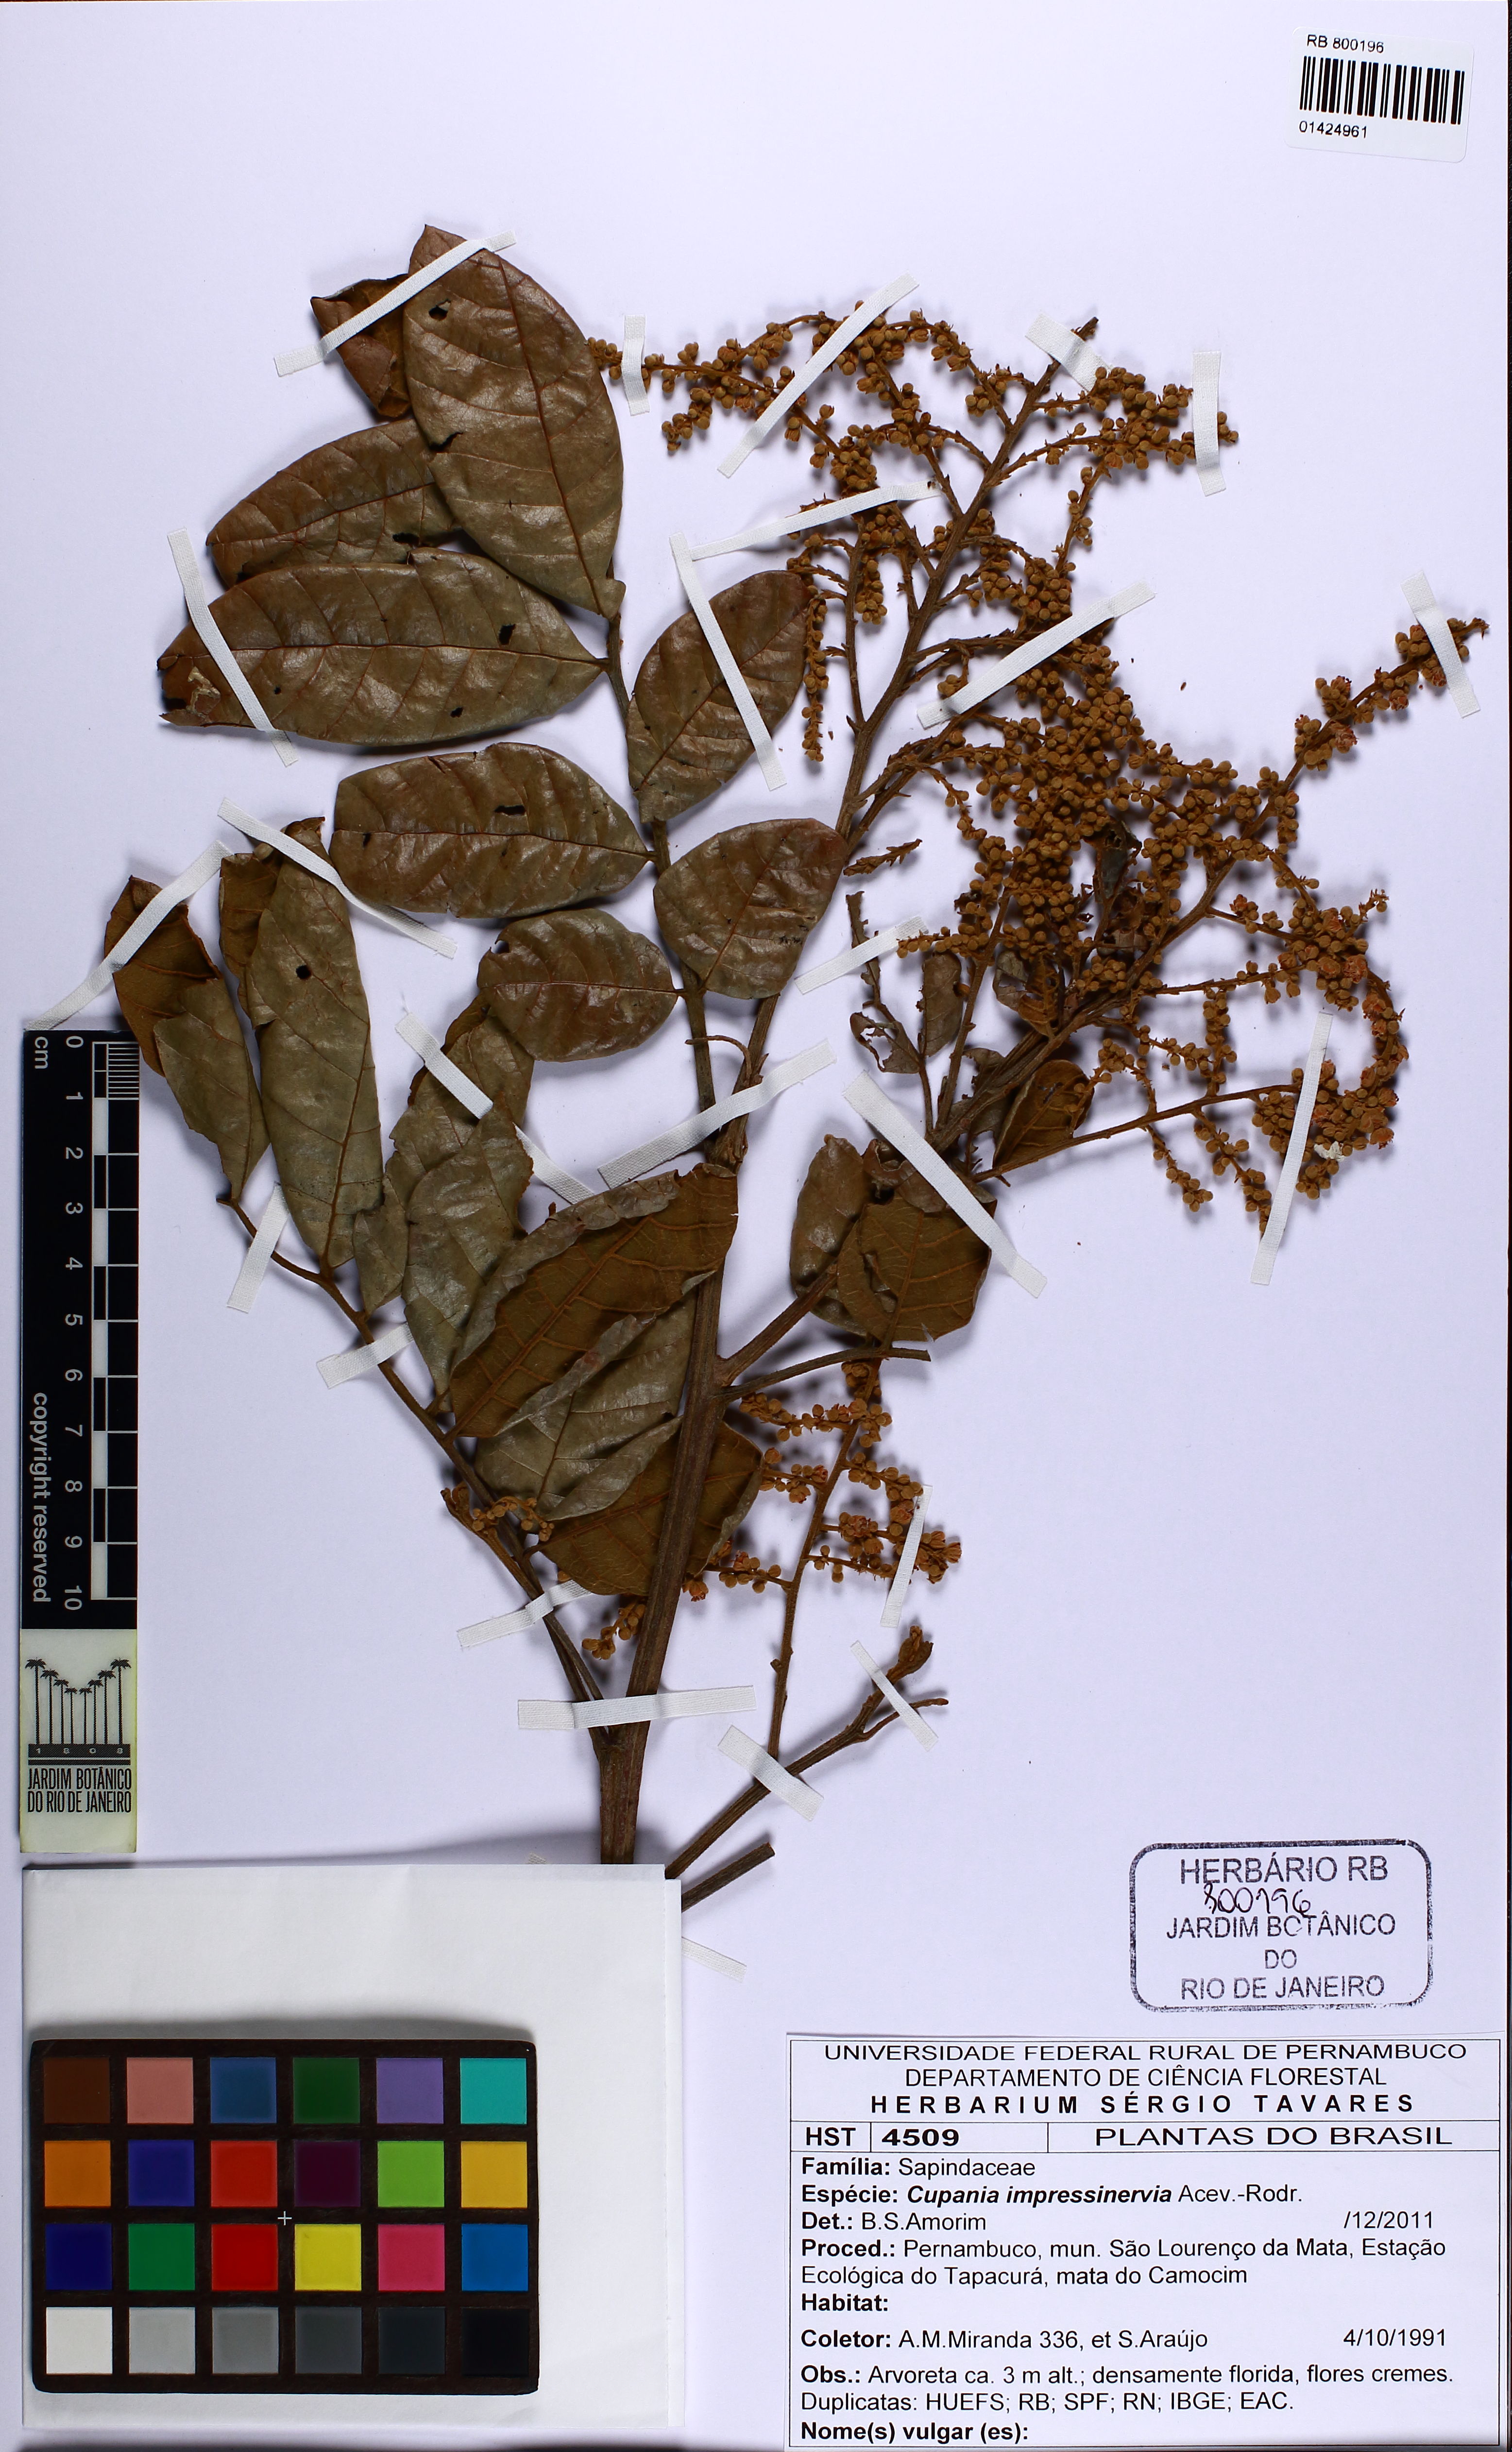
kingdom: Plantae
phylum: Tracheophyta
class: Magnoliopsida
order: Sapindales
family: Sapindaceae
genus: Cupania
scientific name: Cupania impressinervia
